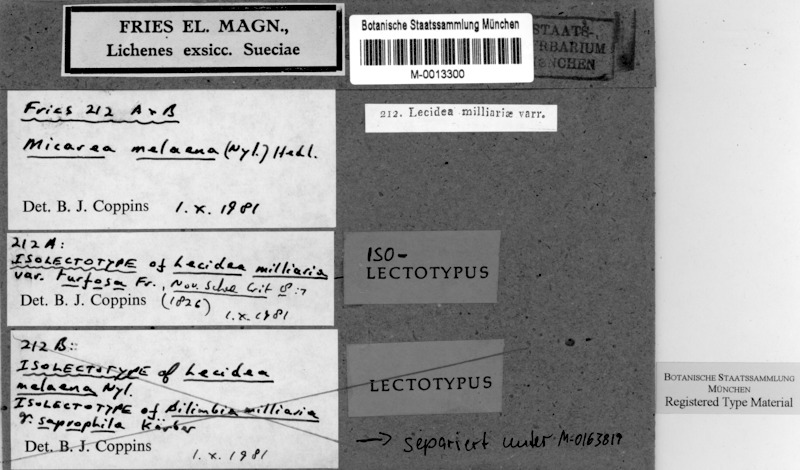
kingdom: Fungi
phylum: Ascomycota
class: Lecanoromycetes
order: Lecanorales
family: Byssolomataceae
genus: Micarea
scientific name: Micarea melaena
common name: Wood dot lichen
